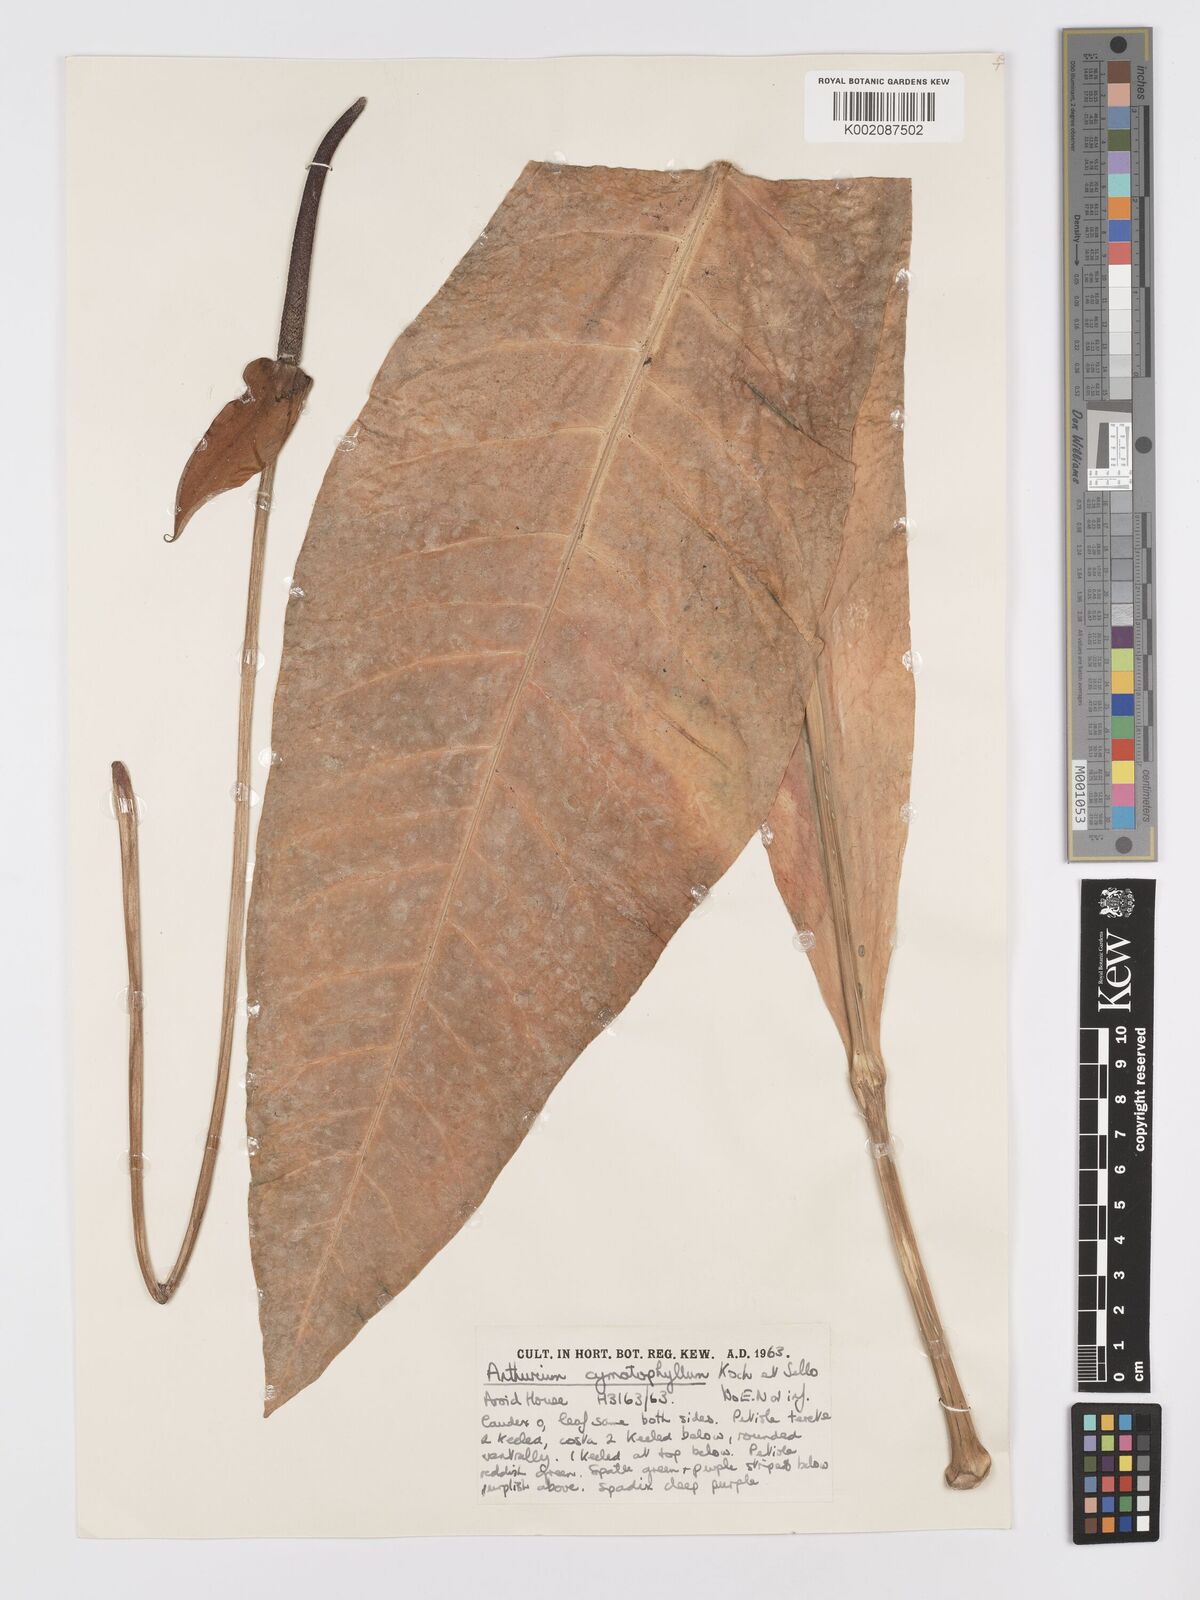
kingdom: Plantae
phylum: Tracheophyta
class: Liliopsida
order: Alismatales
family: Araceae
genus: Anthurium
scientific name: Anthurium dombeyanum
